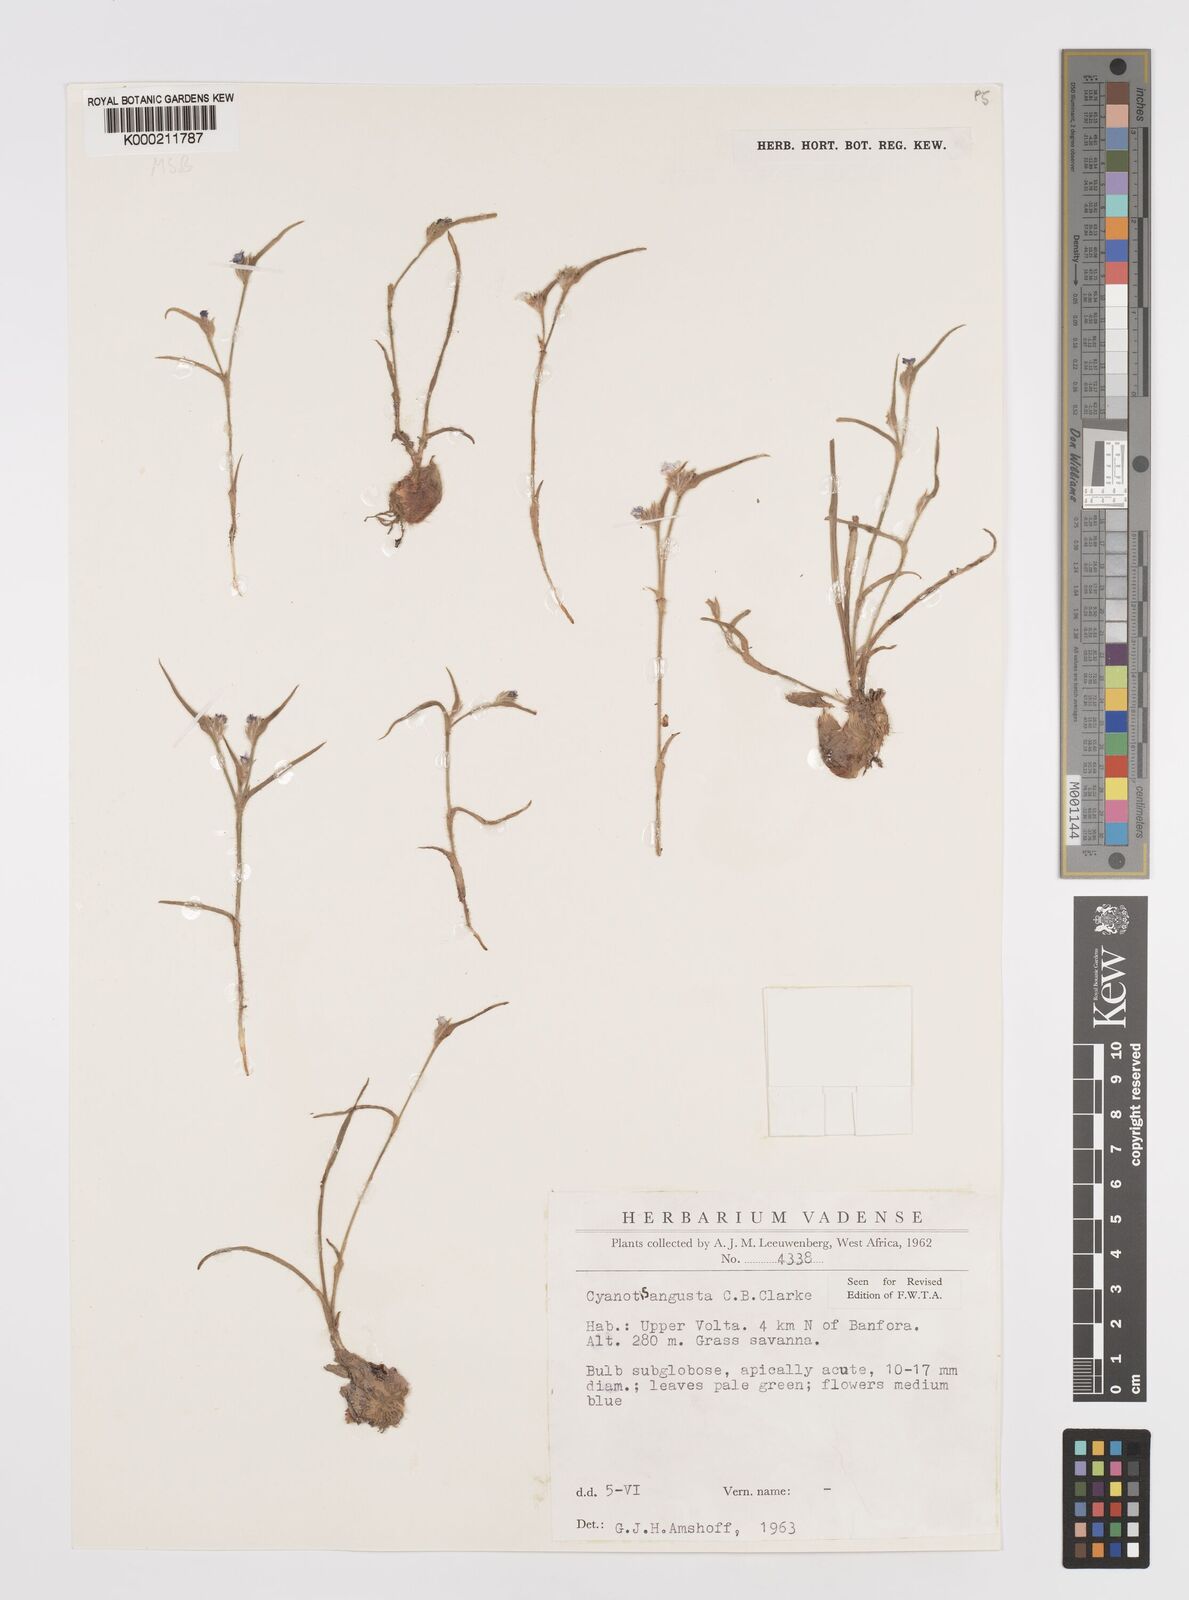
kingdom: Plantae
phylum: Tracheophyta
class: Liliopsida
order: Commelinales
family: Commelinaceae
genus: Cyanotis
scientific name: Cyanotis angusta
